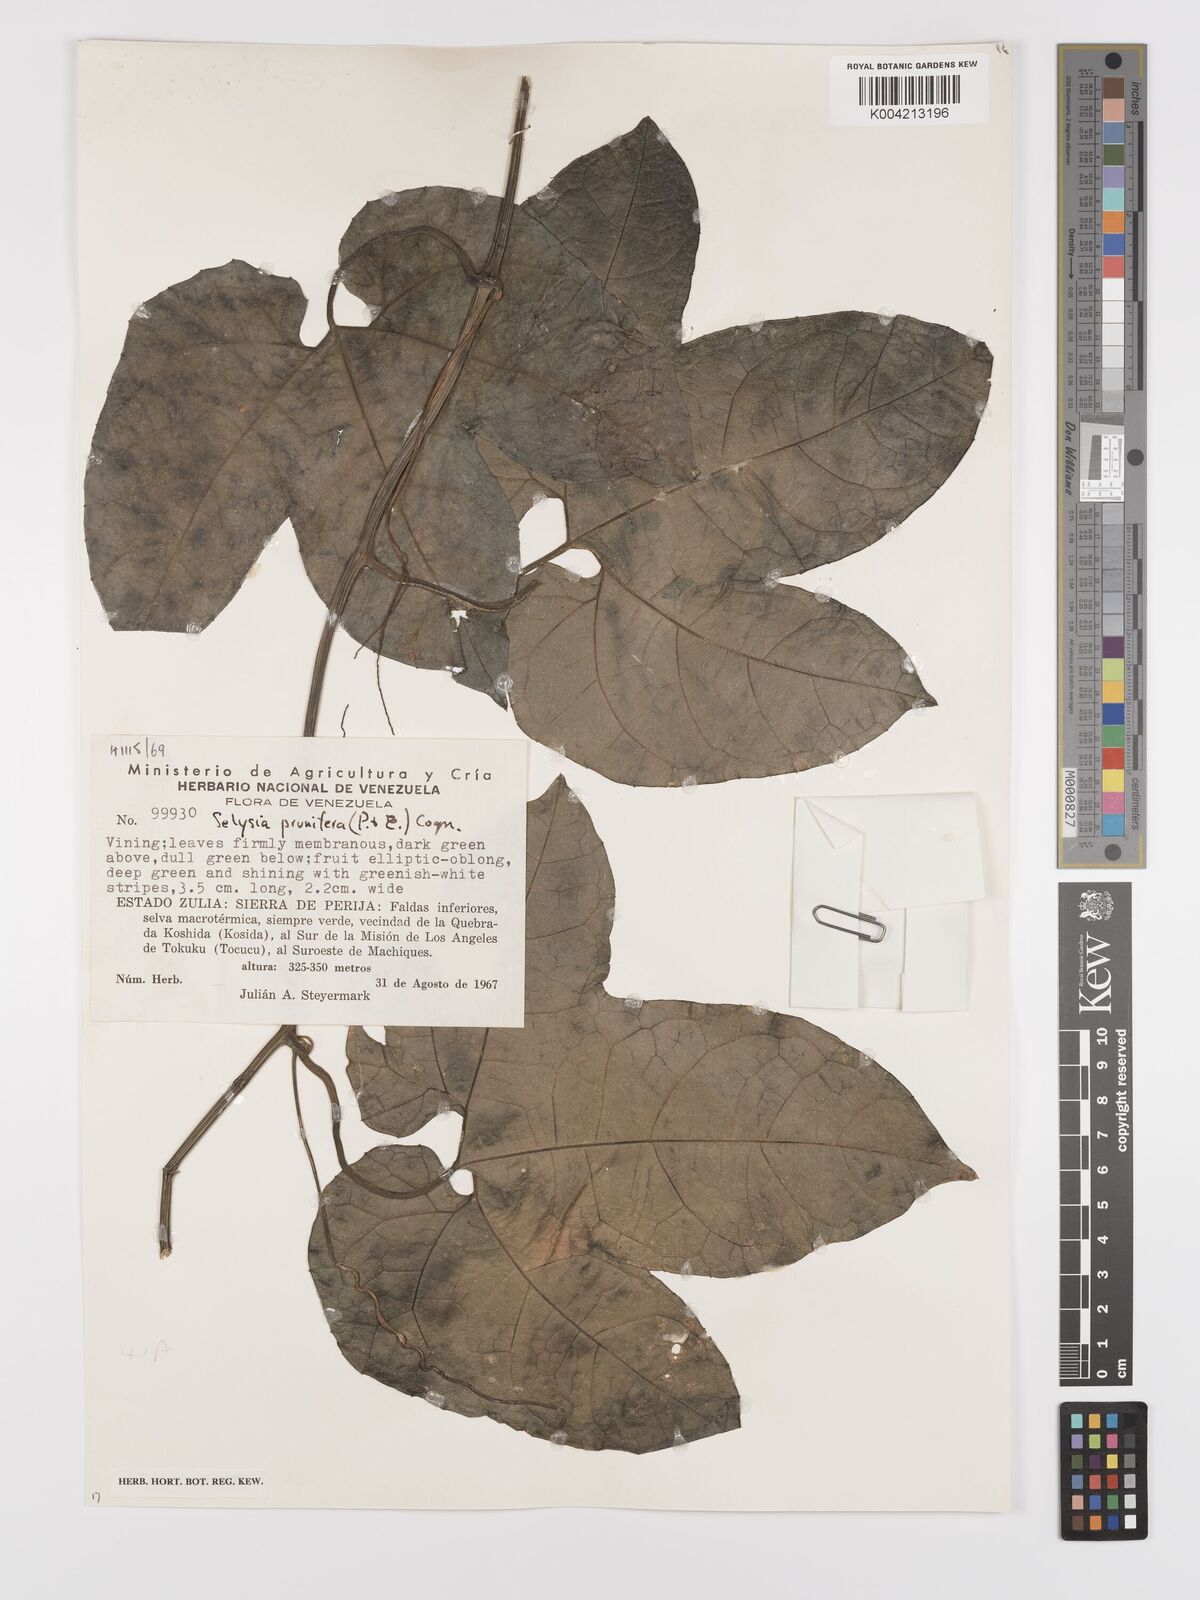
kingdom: Plantae
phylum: Tracheophyta
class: Magnoliopsida
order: Cucurbitales
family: Cucurbitaceae
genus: Cayaponia
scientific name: Cayaponia prunifera
